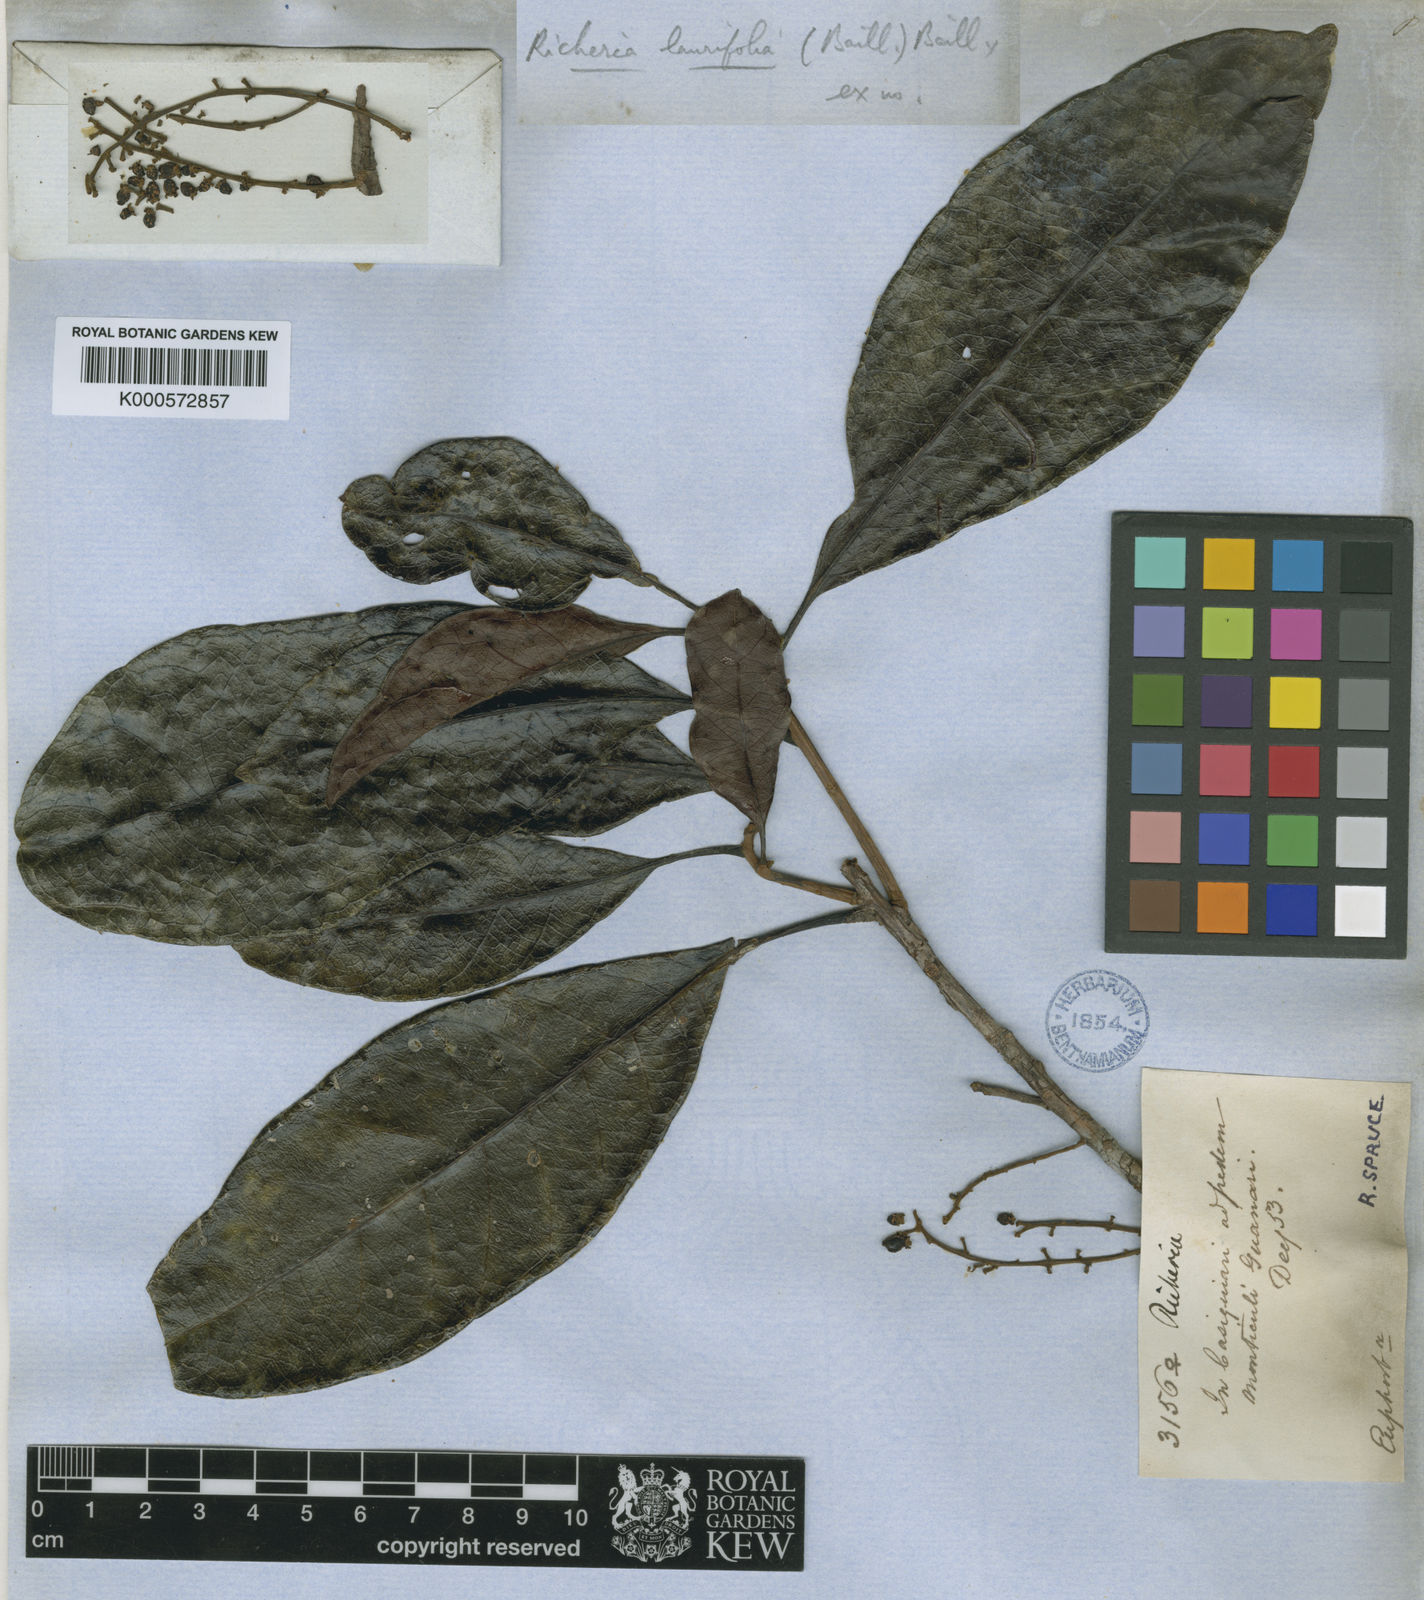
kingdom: Plantae
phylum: Tracheophyta
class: Magnoliopsida
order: Malpighiales
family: Phyllanthaceae
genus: Richeria
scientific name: Richeria
